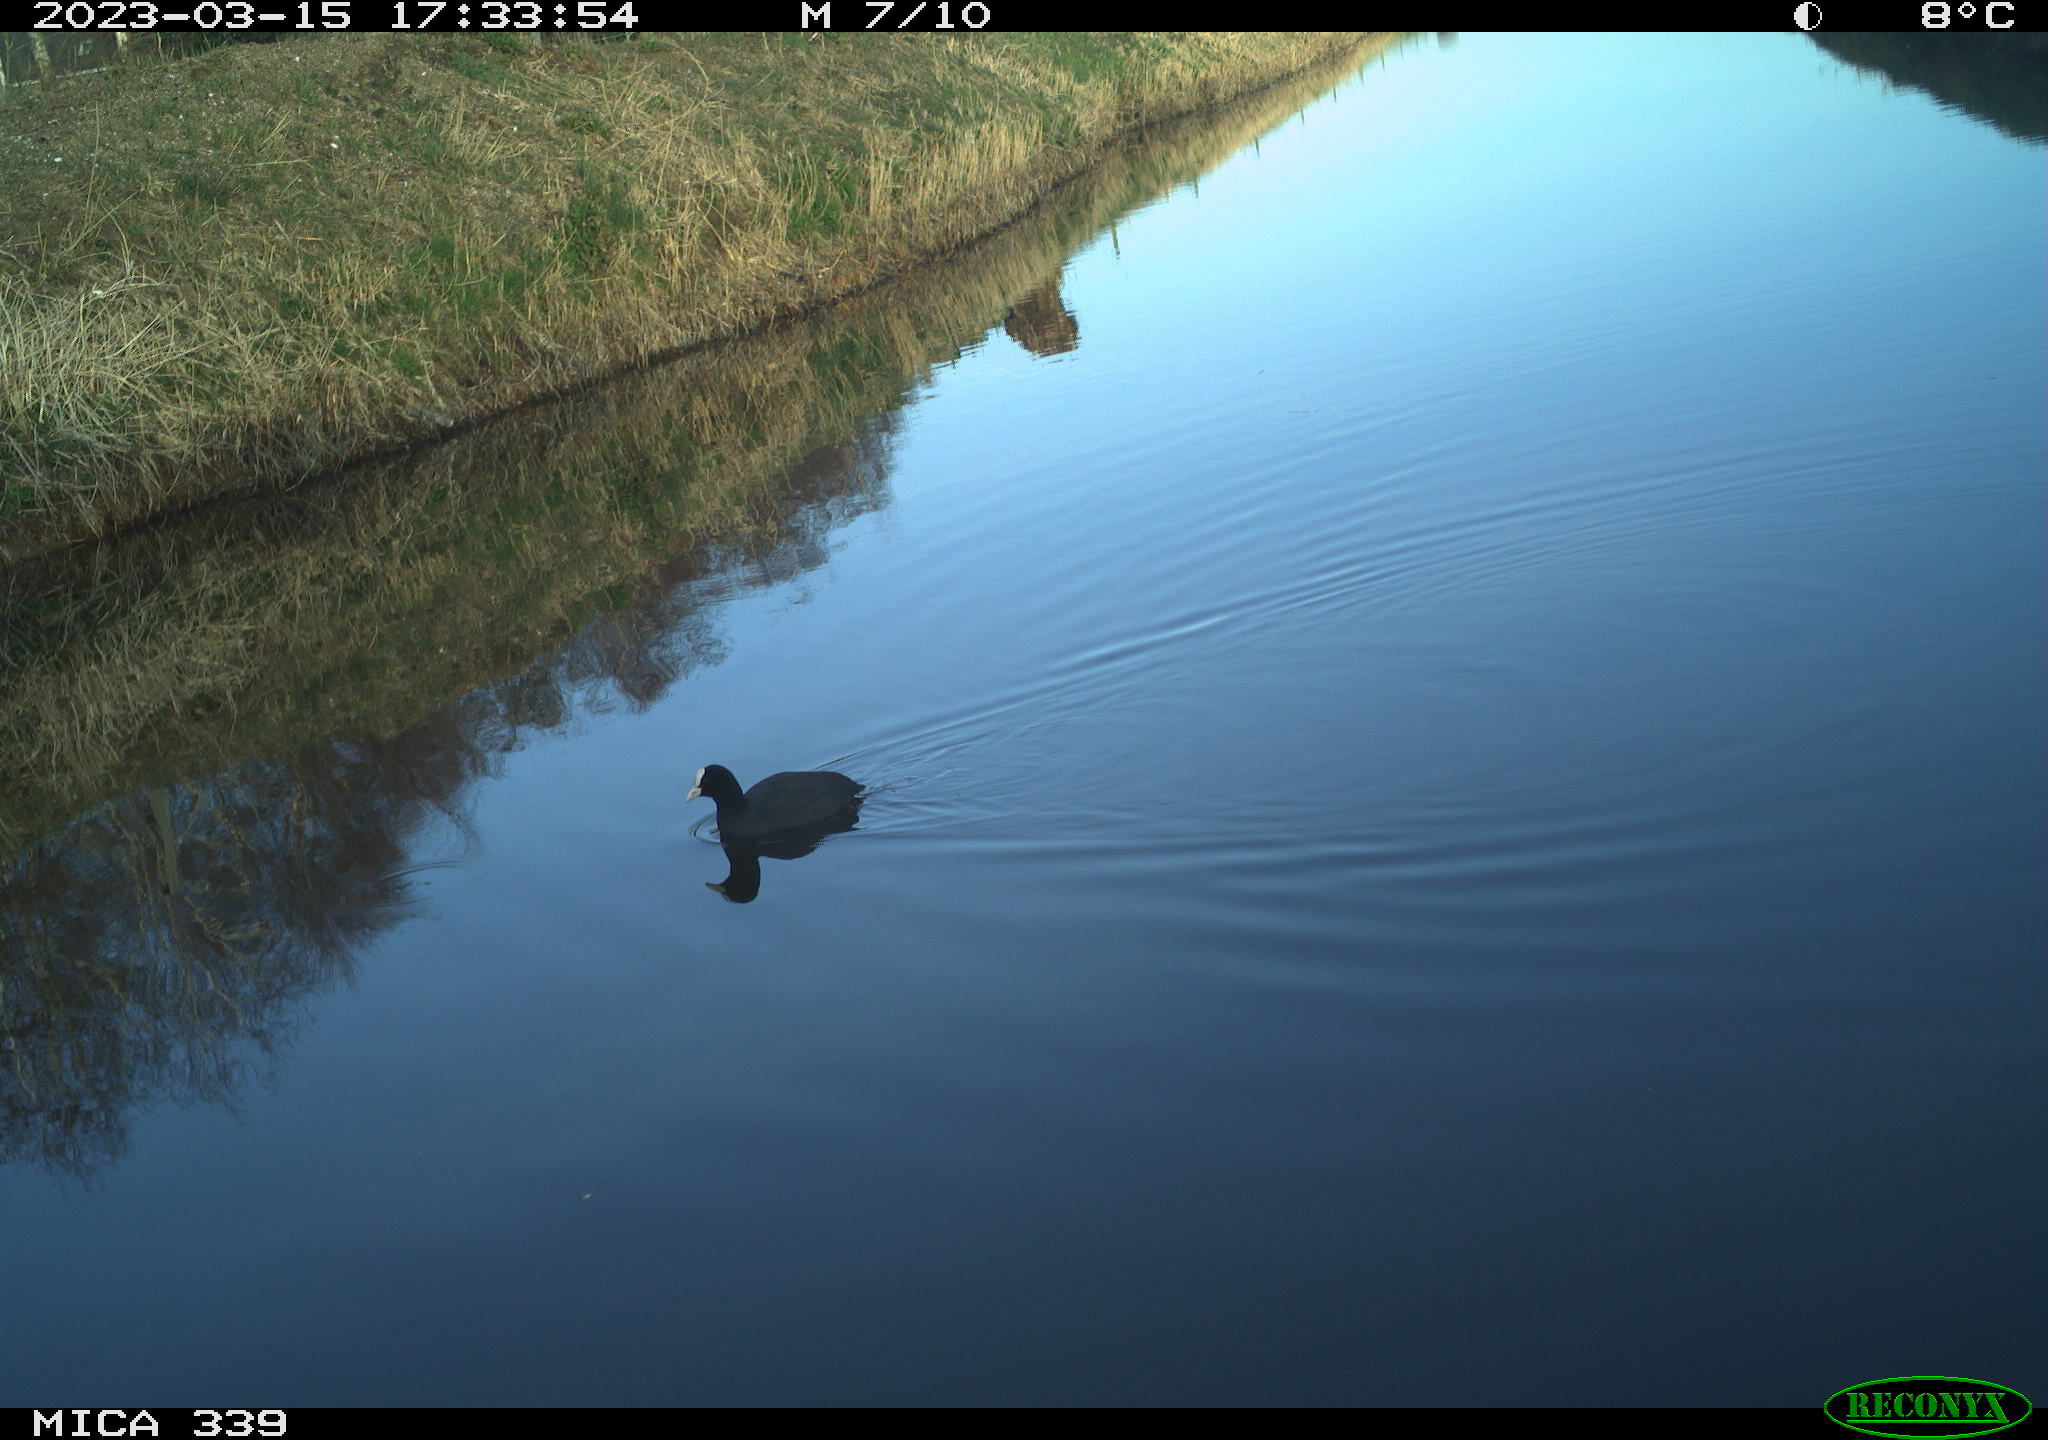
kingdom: Animalia
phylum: Chordata
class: Aves
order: Gruiformes
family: Rallidae
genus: Fulica
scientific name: Fulica atra
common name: Eurasian coot
